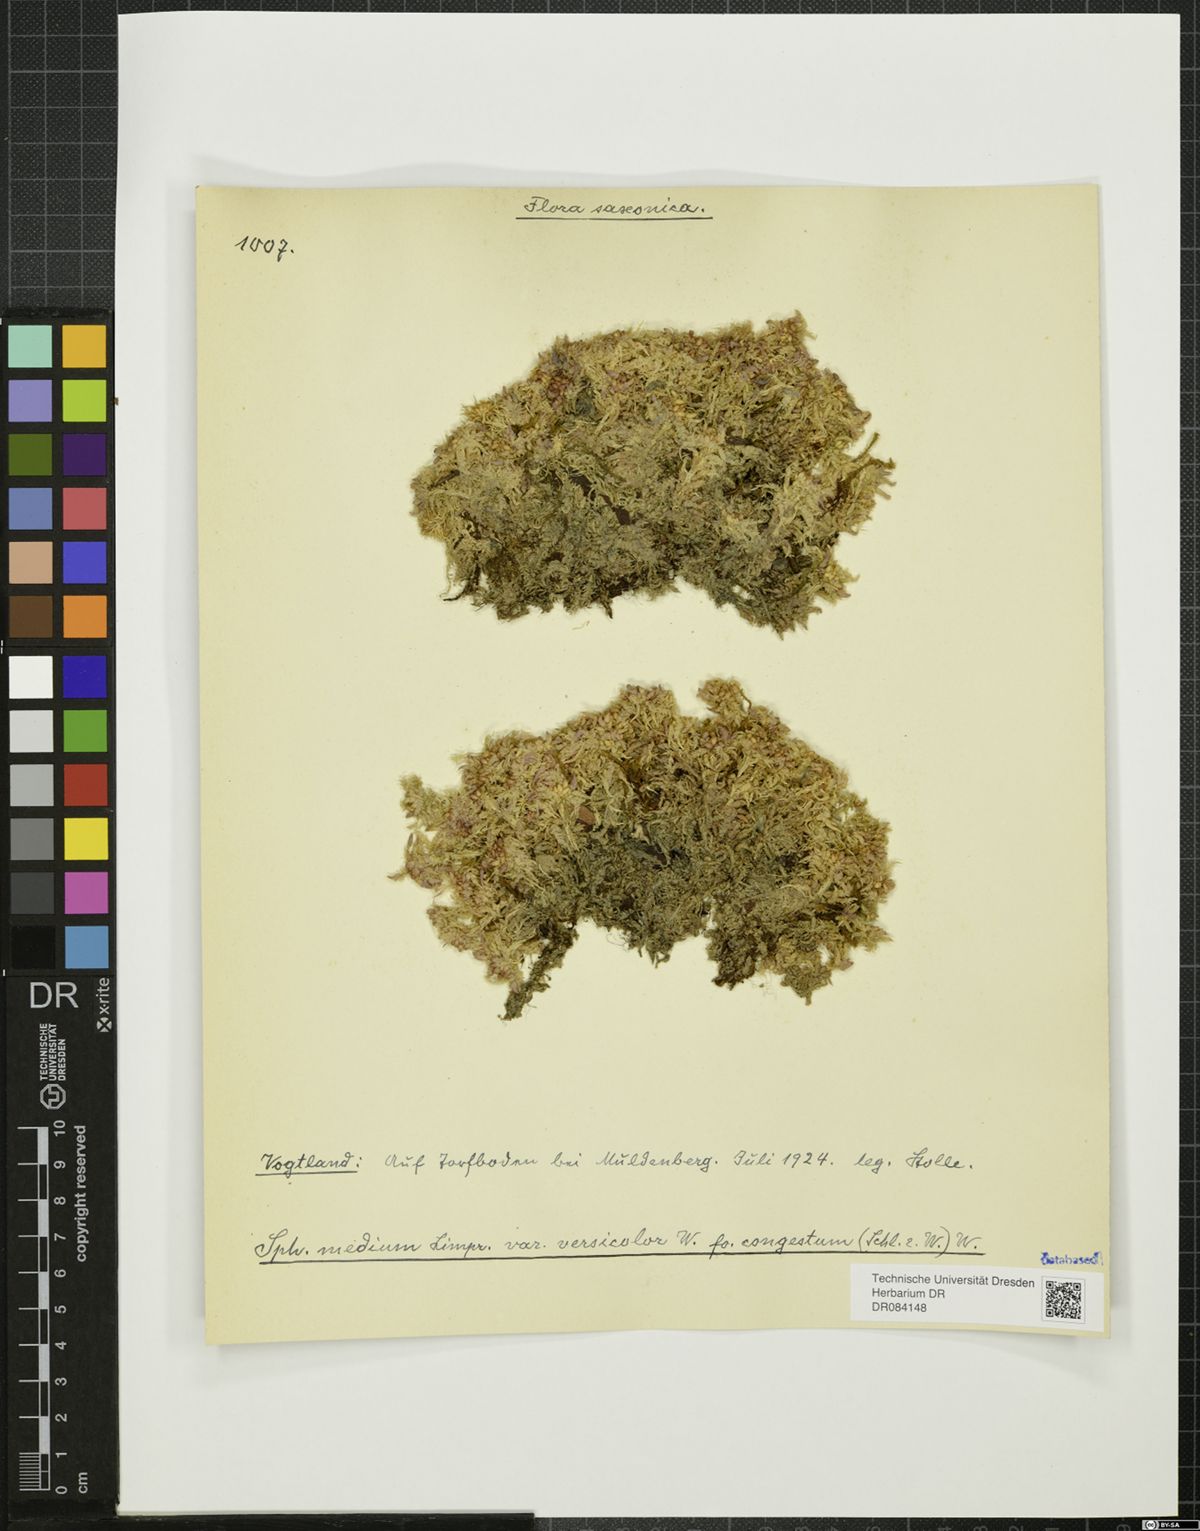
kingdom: Plantae
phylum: Bryophyta
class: Sphagnopsida
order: Sphagnales
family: Sphagnaceae
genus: Sphagnum
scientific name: Sphagnum
